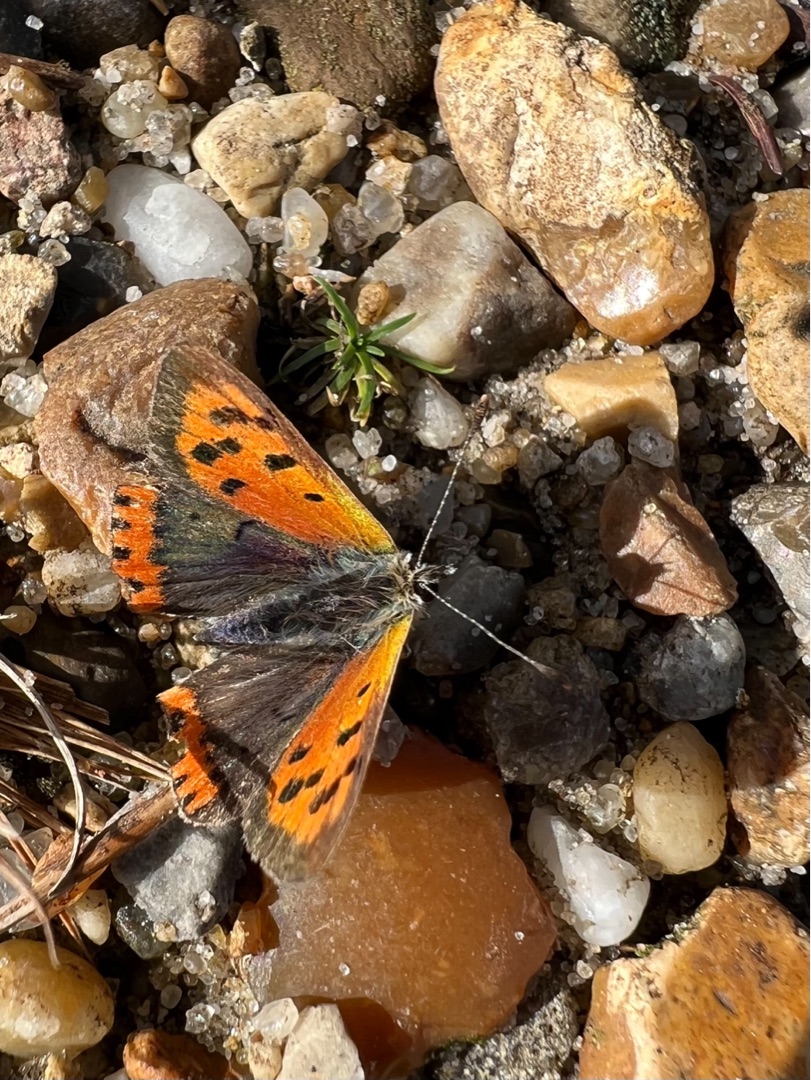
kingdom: Animalia
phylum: Arthropoda
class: Insecta
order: Lepidoptera
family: Lycaenidae
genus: Lycaena
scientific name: Lycaena phlaeas
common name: Lille ildfugl
